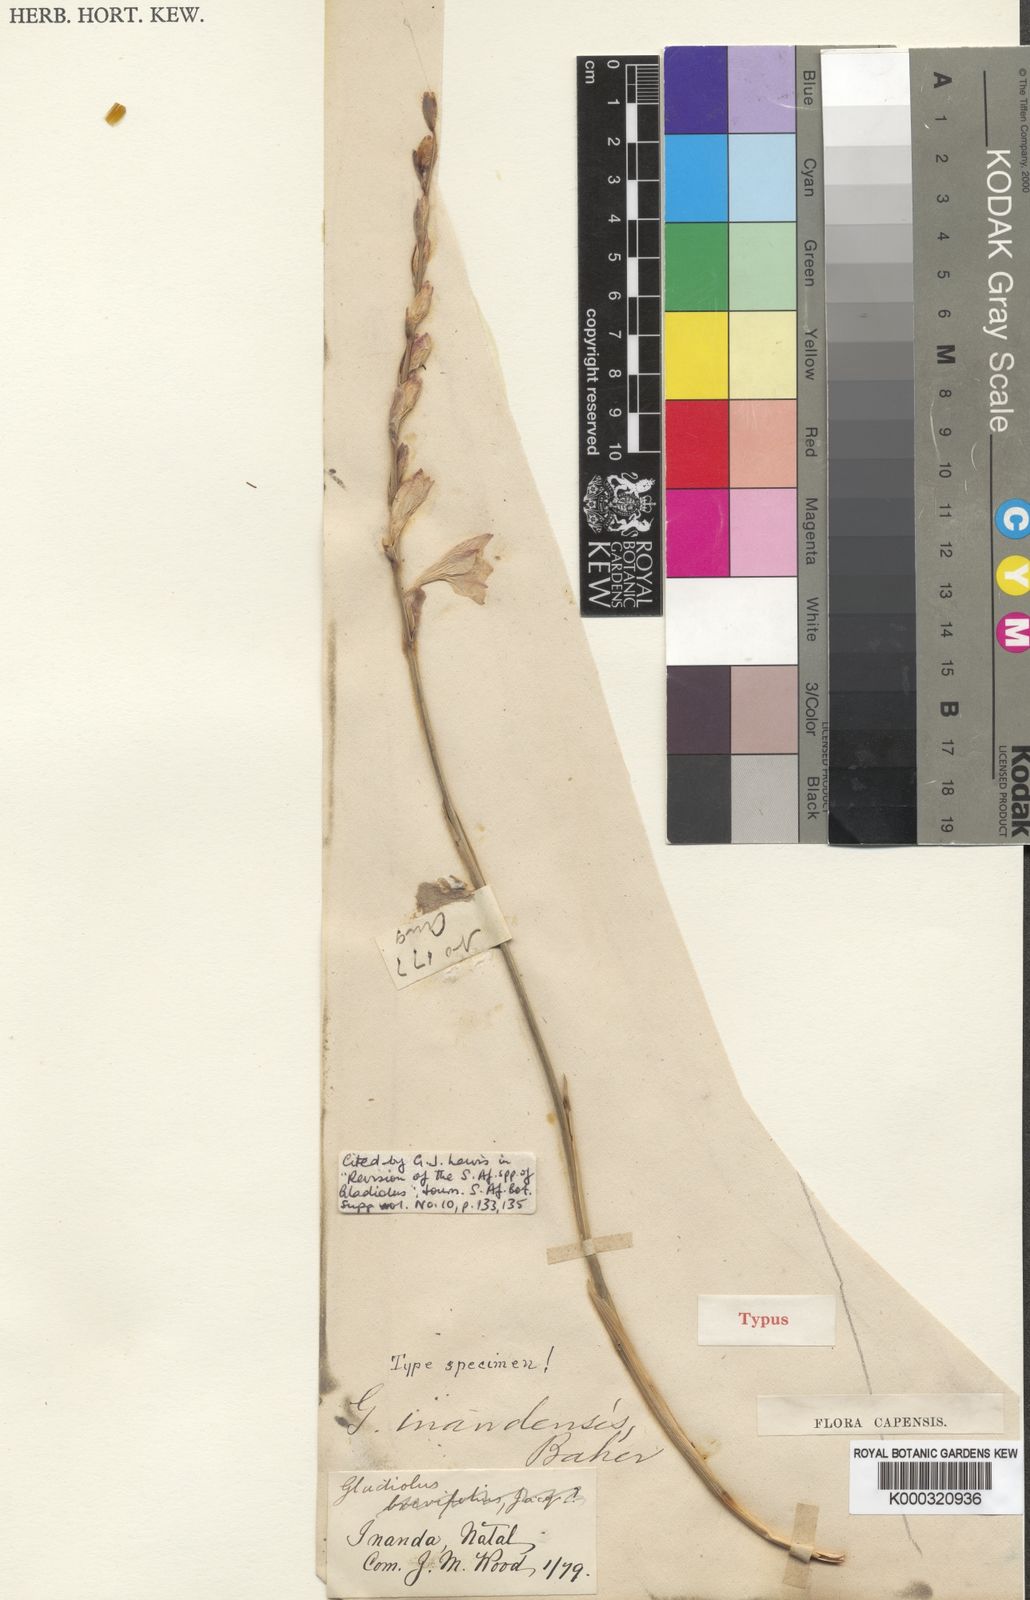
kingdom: Plantae
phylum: Tracheophyta
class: Liliopsida
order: Asparagales
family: Iridaceae
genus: Gladiolus
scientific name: Gladiolus inandensis
